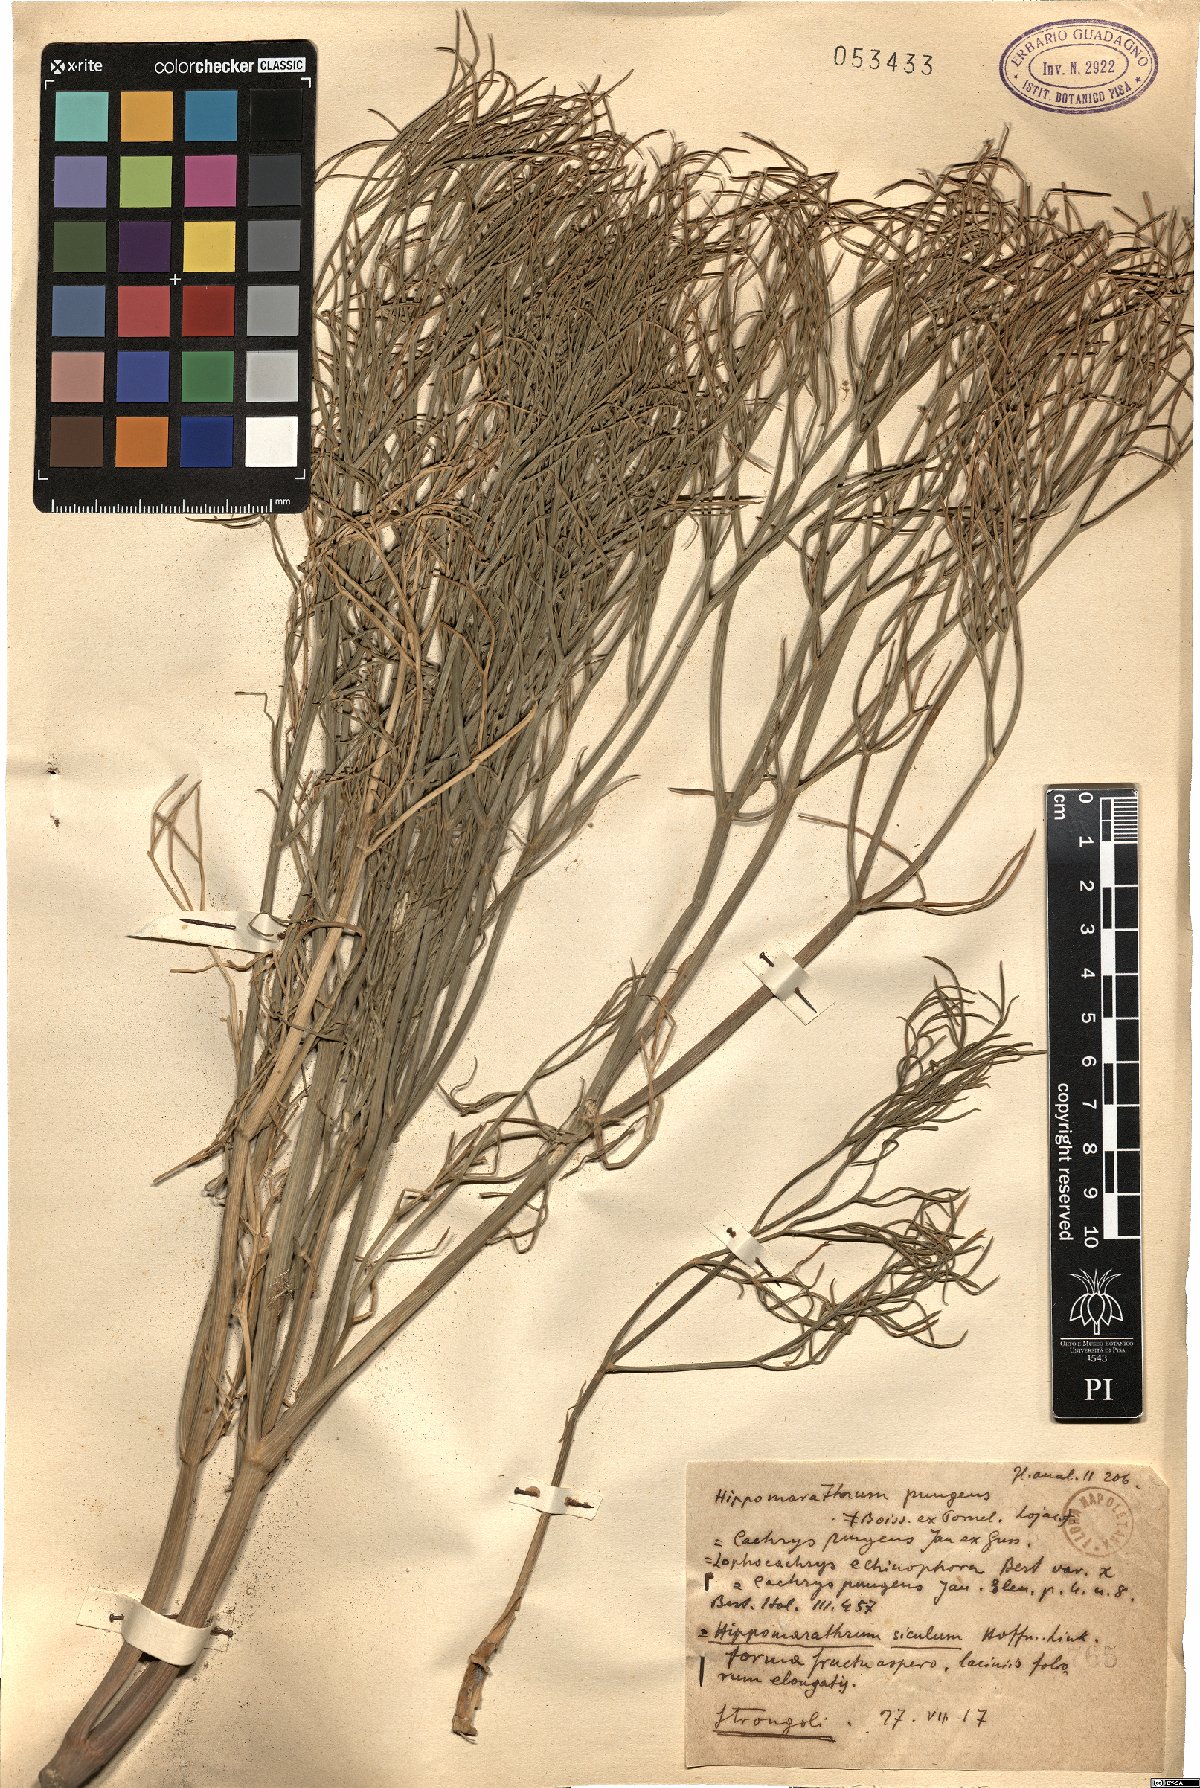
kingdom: Plantae
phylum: Tracheophyta
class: Magnoliopsida
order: Apiales
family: Apiaceae
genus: Cachrys
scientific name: Cachrys pungens
